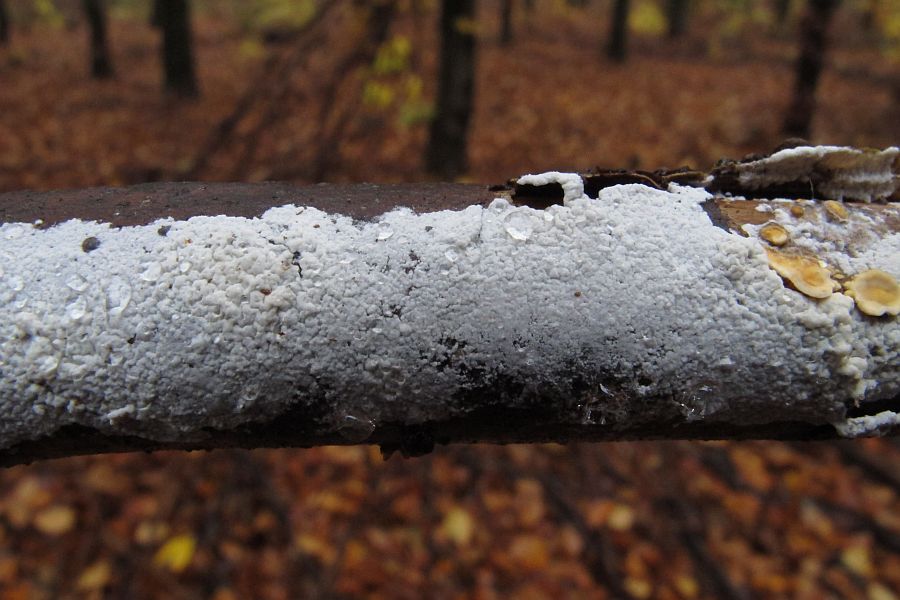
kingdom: Fungi
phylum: Basidiomycota
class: Agaricomycetes
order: Atheliales
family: Atheliaceae
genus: Athelia
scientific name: Athelia epiphylla
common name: almindelig barkhinde
